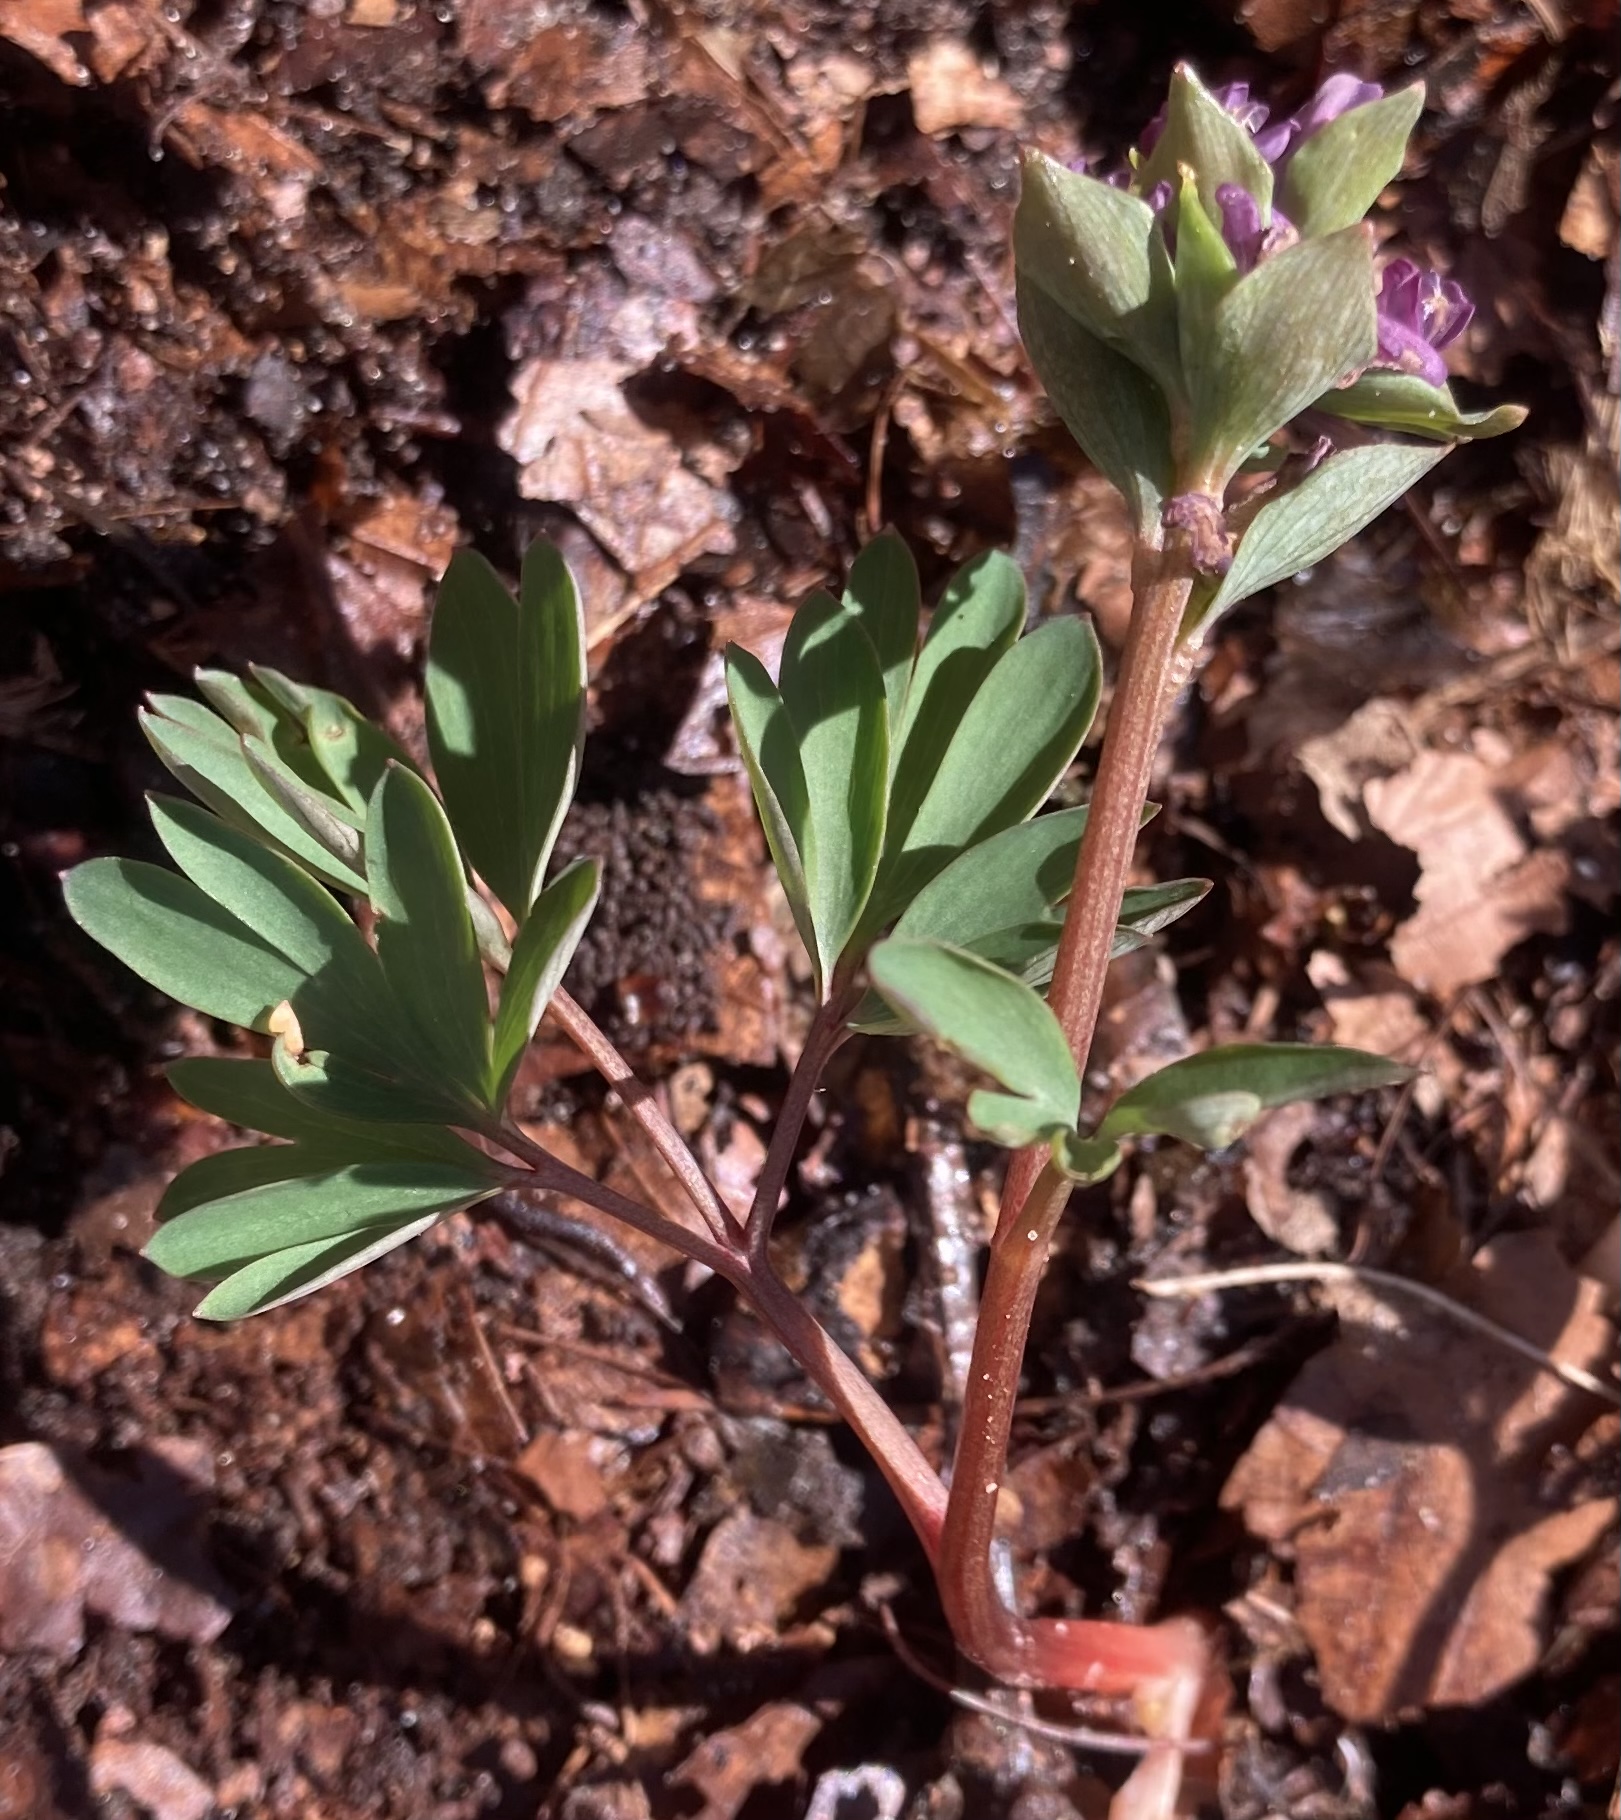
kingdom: Plantae
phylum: Tracheophyta
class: Magnoliopsida
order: Ranunculales
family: Papaveraceae
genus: Corydalis
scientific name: Corydalis cava
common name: Hulrodet lærkespore
